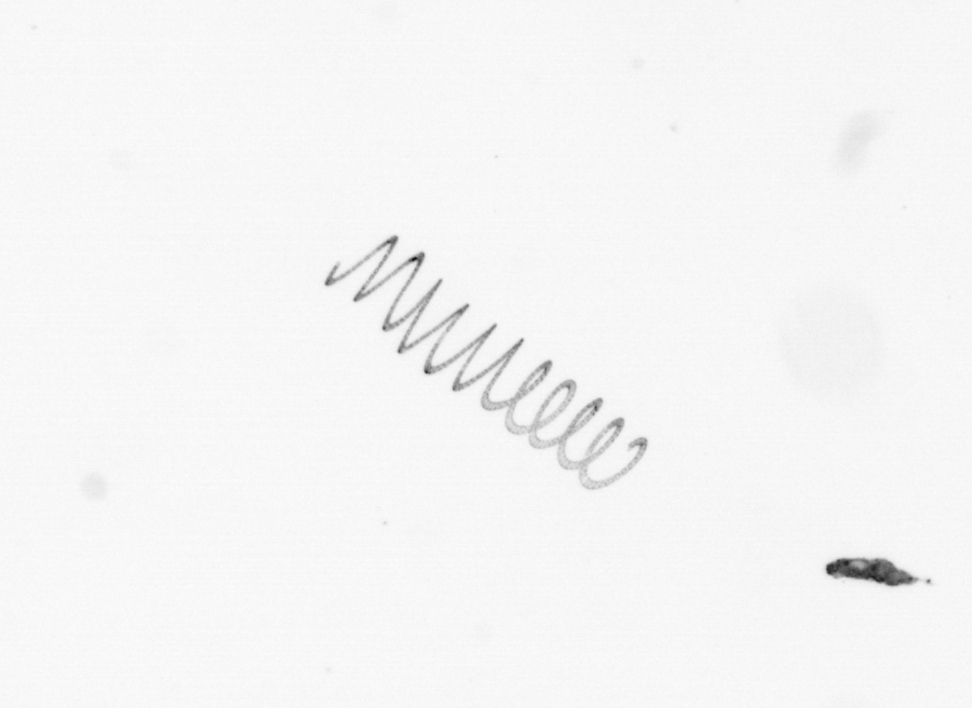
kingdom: Chromista
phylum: Ochrophyta
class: Bacillariophyceae
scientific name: Bacillariophyceae
